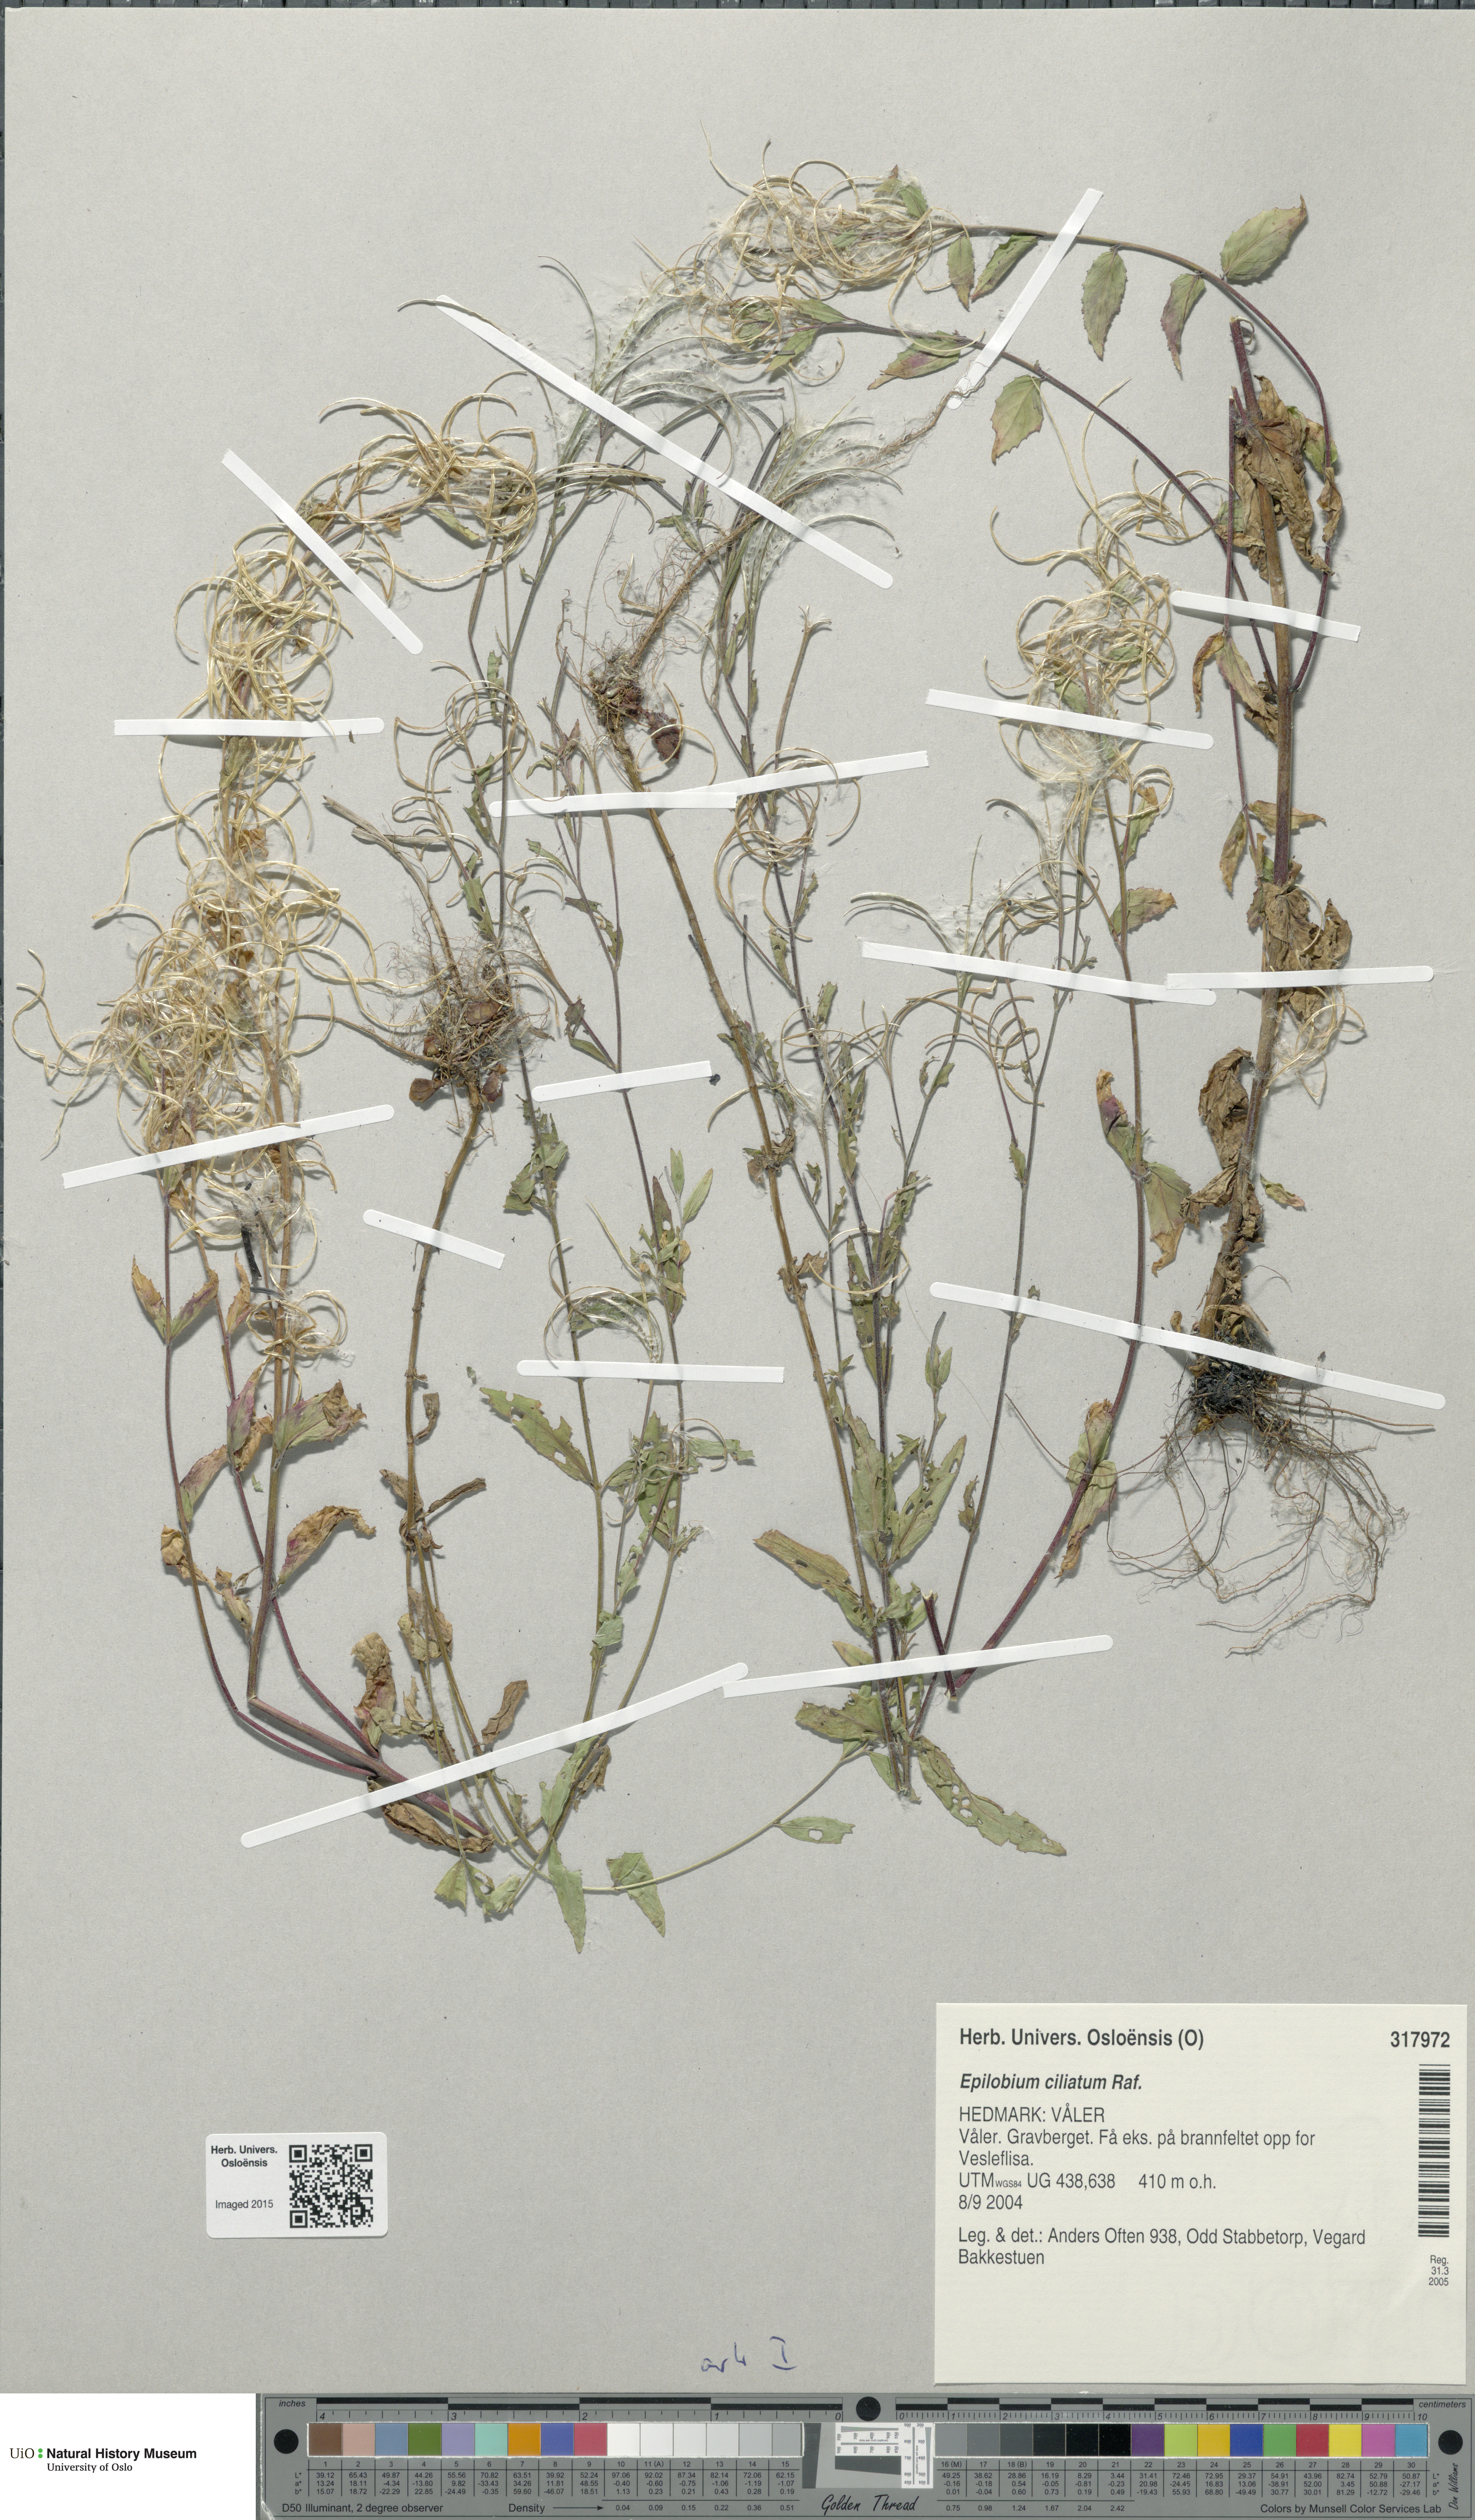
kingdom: Plantae
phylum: Tracheophyta
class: Magnoliopsida
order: Myrtales
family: Onagraceae
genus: Epilobium
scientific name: Epilobium ciliatum
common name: American willowherb
